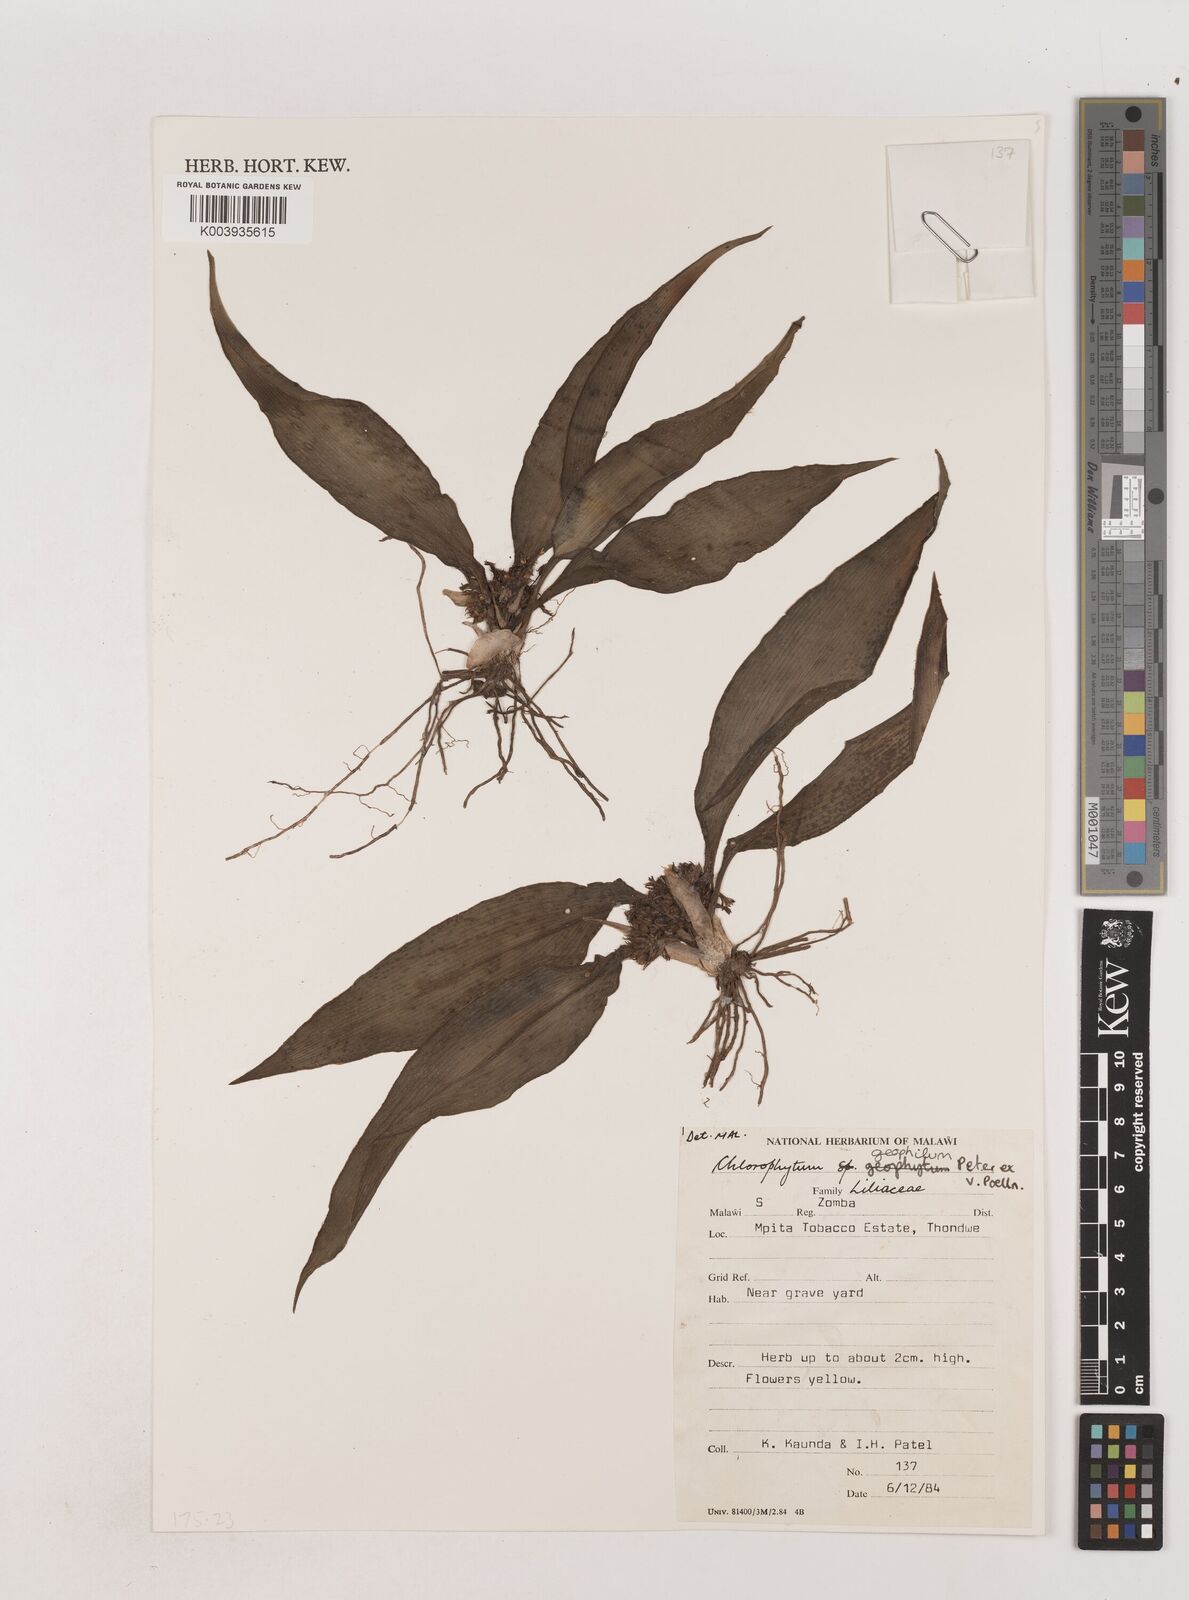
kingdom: Plantae
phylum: Tracheophyta
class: Liliopsida
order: Asparagales
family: Asparagaceae
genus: Chlorophytum
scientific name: Chlorophytum geophilum
